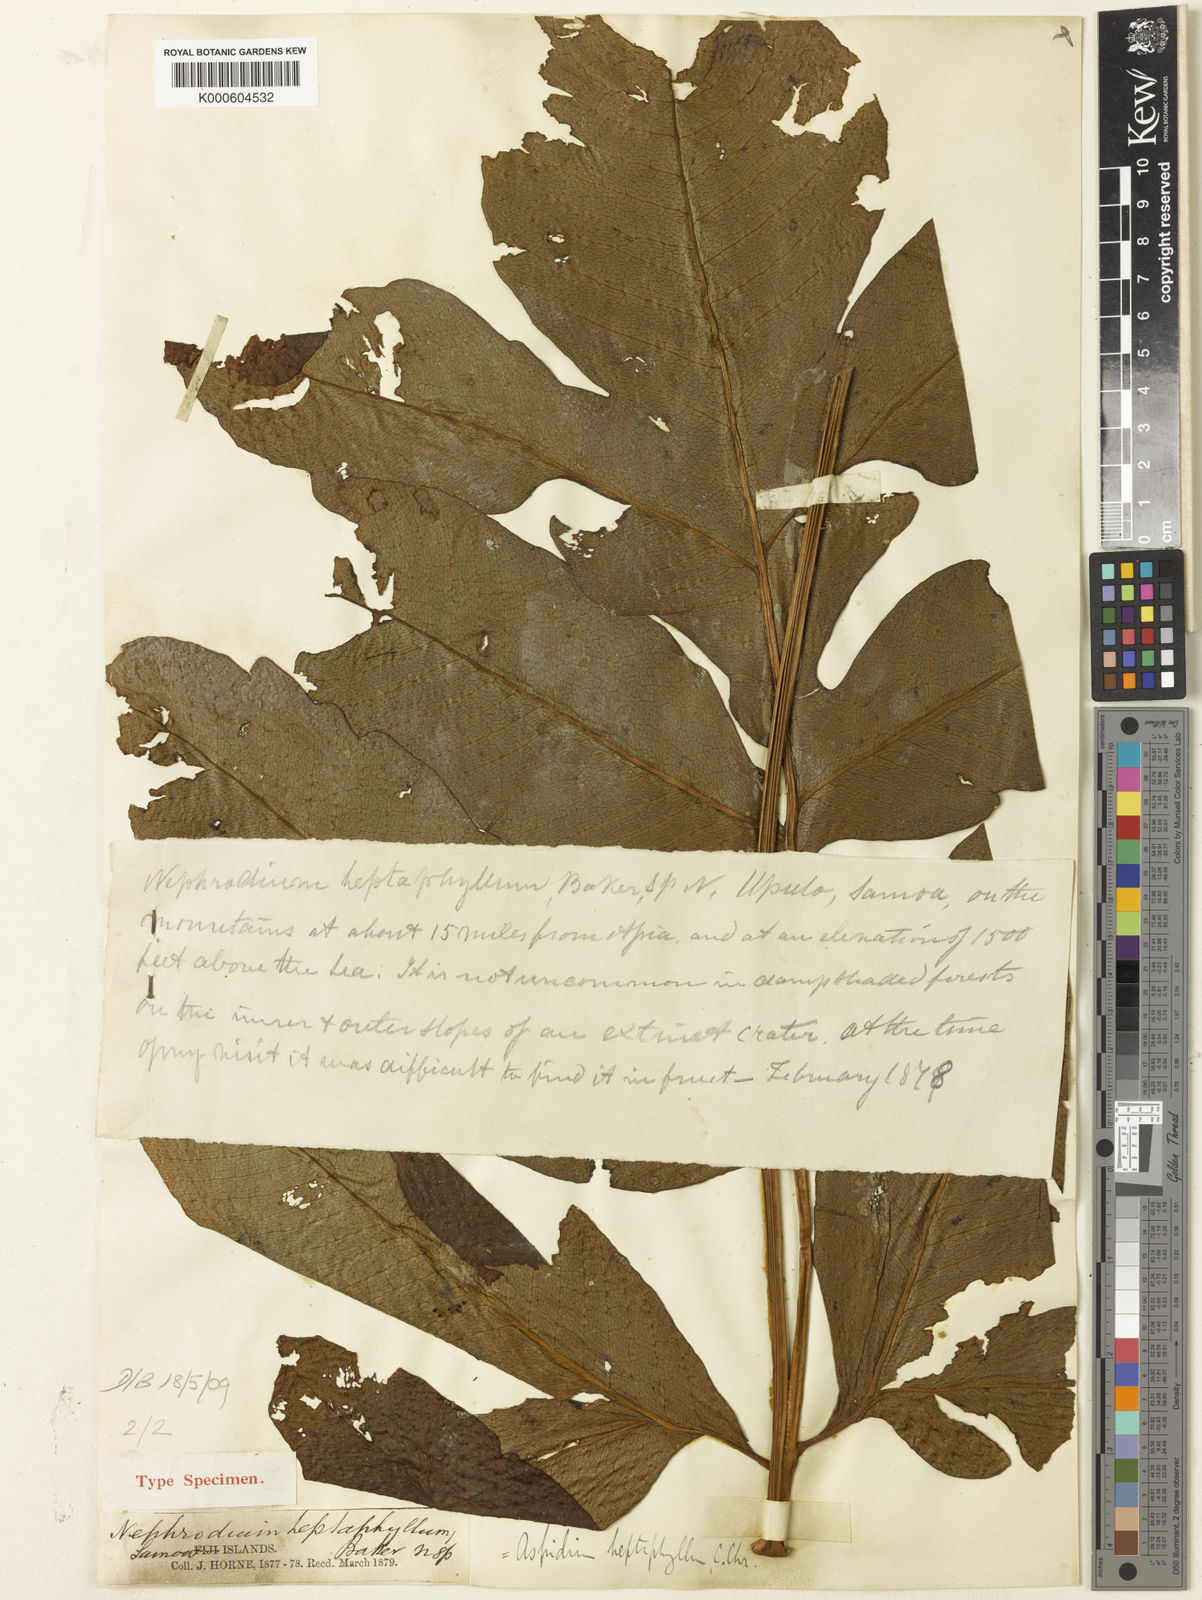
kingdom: Plantae
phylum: Tracheophyta
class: Polypodiopsida
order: Polypodiales
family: Tectariaceae
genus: Tectaria
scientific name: Tectaria crenata
